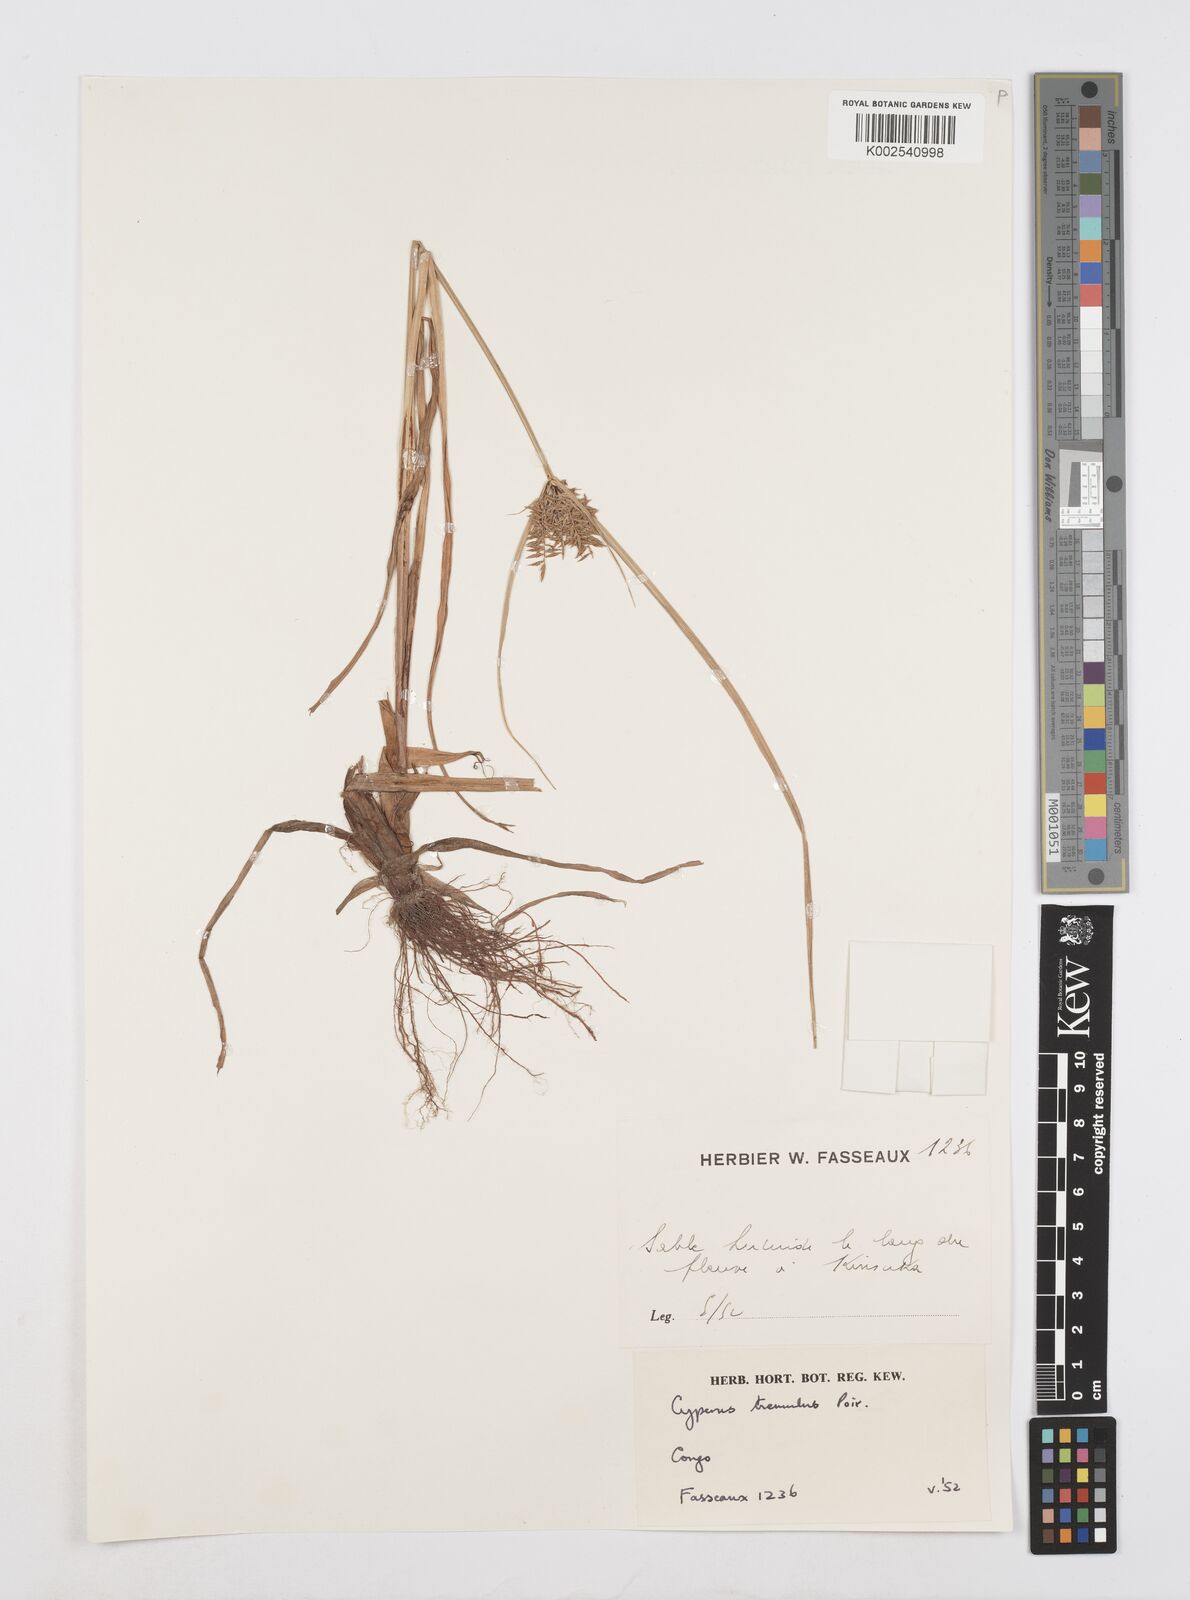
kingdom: Plantae
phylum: Tracheophyta
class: Liliopsida
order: Poales
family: Cyperaceae
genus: Cyperus
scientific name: Cyperus macrostachyos
